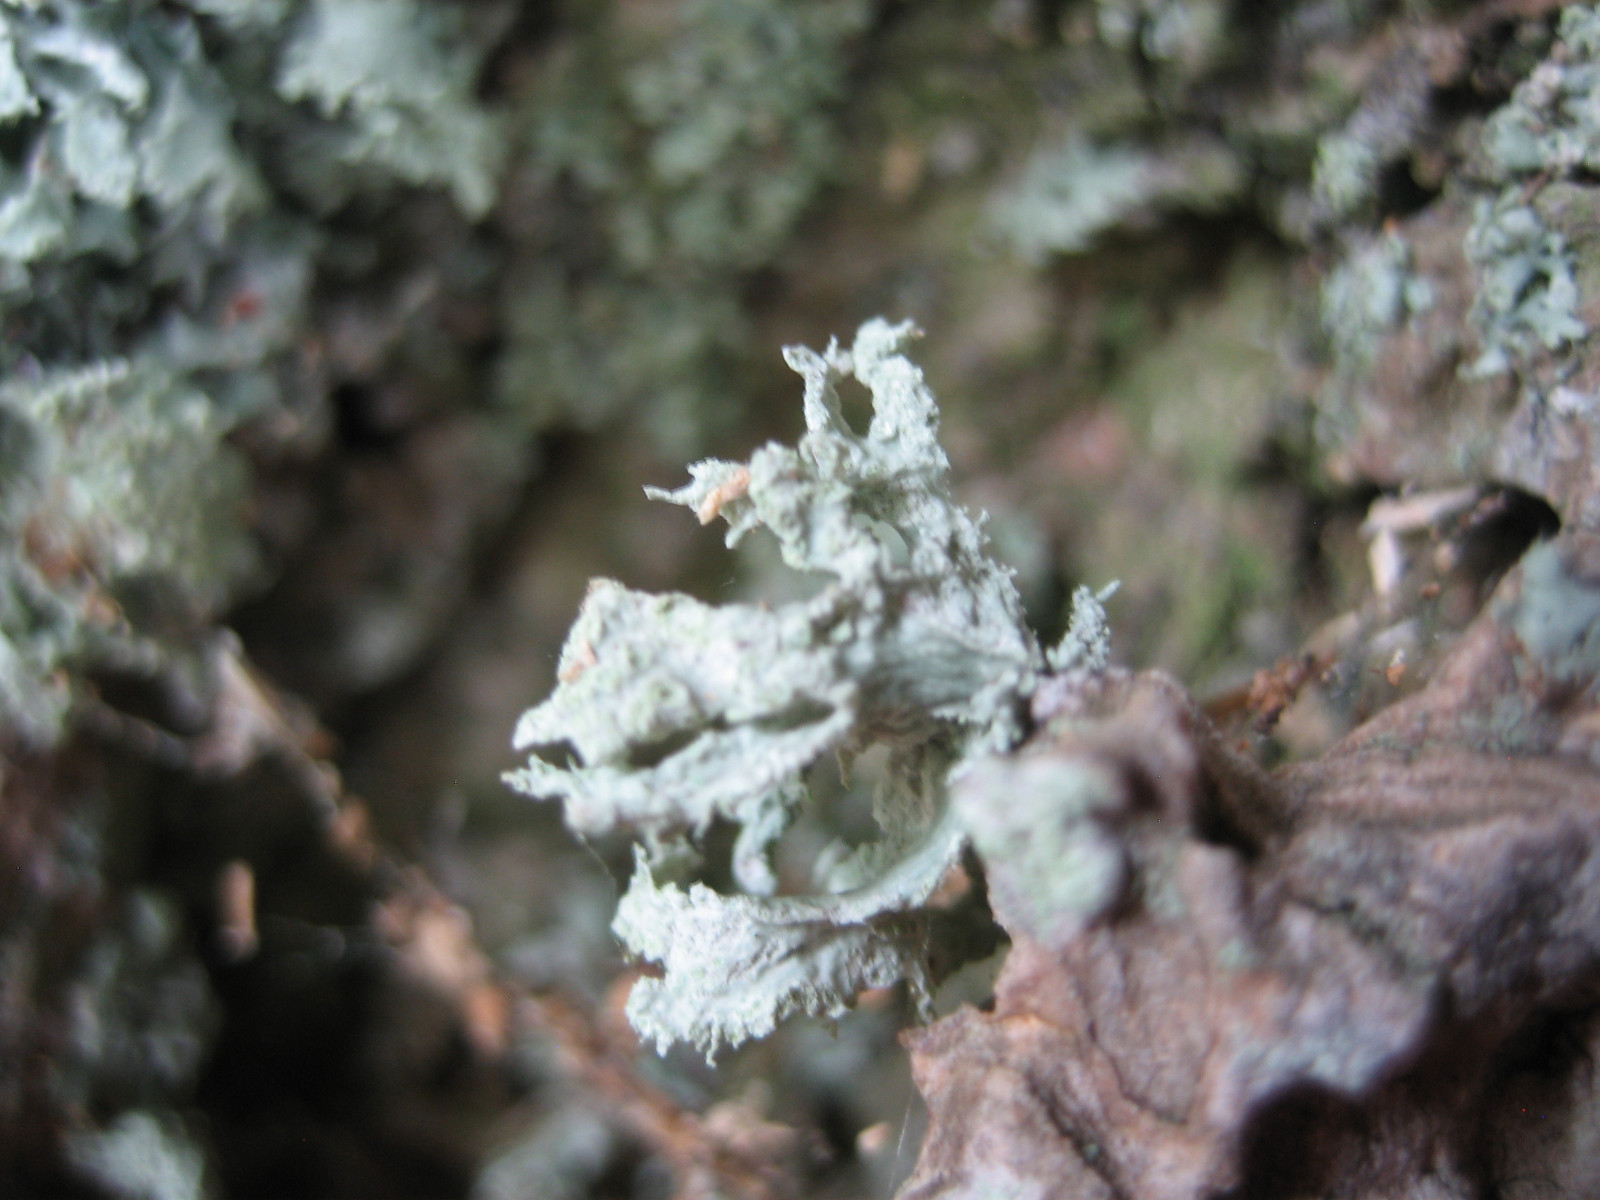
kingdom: Fungi
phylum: Ascomycota
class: Lecanoromycetes
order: Lecanorales
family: Ramalinaceae
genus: Ramalina
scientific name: Ramalina
